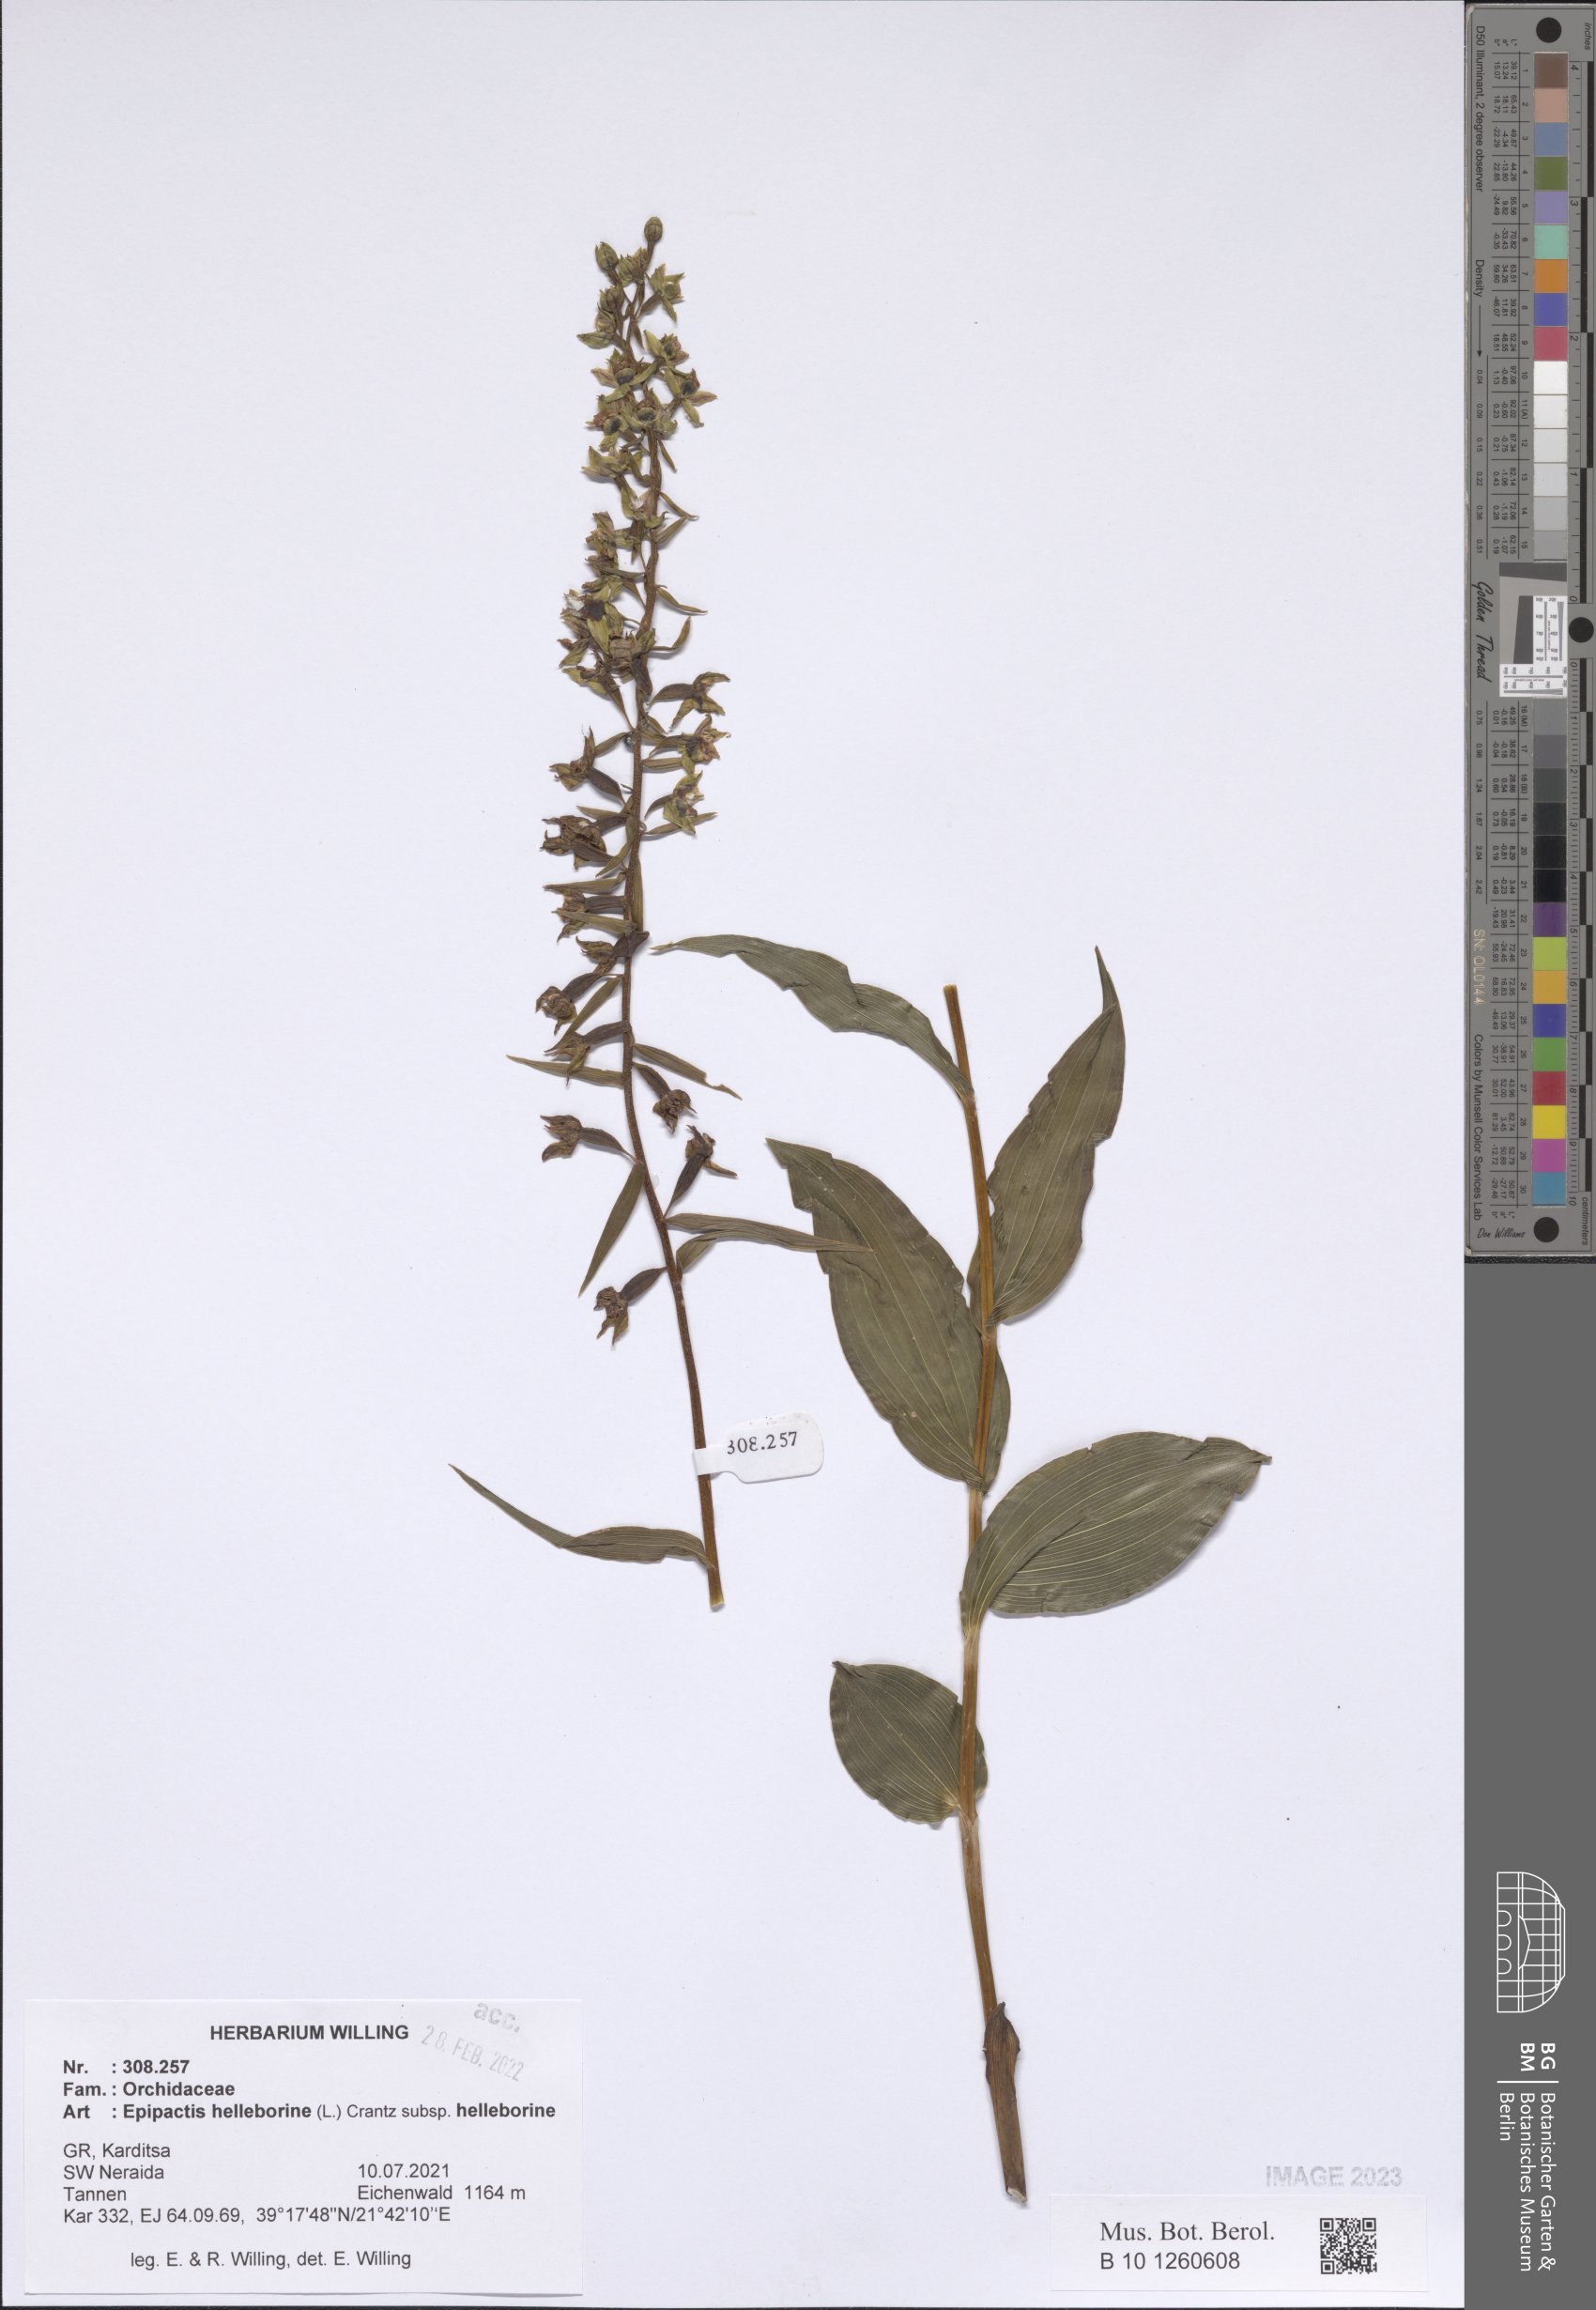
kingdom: Plantae
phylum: Tracheophyta
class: Liliopsida
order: Asparagales
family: Orchidaceae
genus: Epipactis
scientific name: Epipactis helleborine
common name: Broad-leaved helleborine
